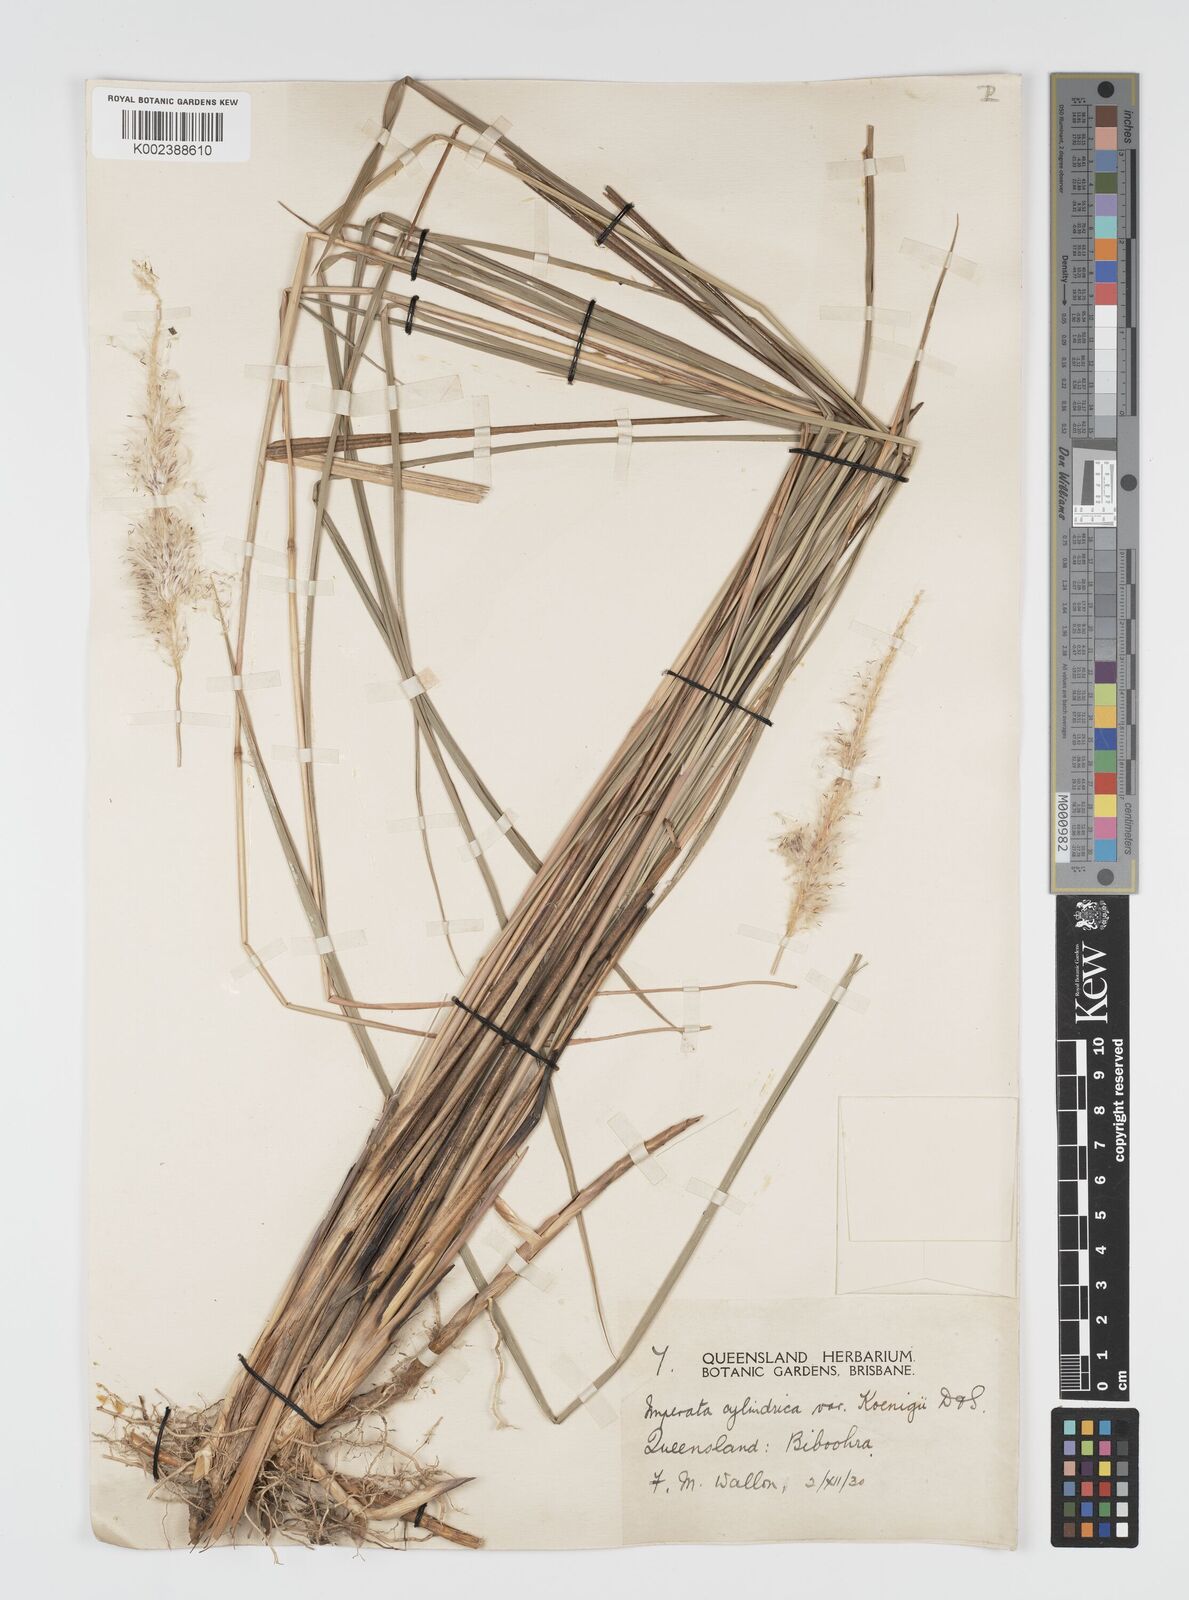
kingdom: Plantae
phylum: Tracheophyta
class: Liliopsida
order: Poales
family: Poaceae
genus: Imperata
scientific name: Imperata cylindrica
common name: Cogongrass
